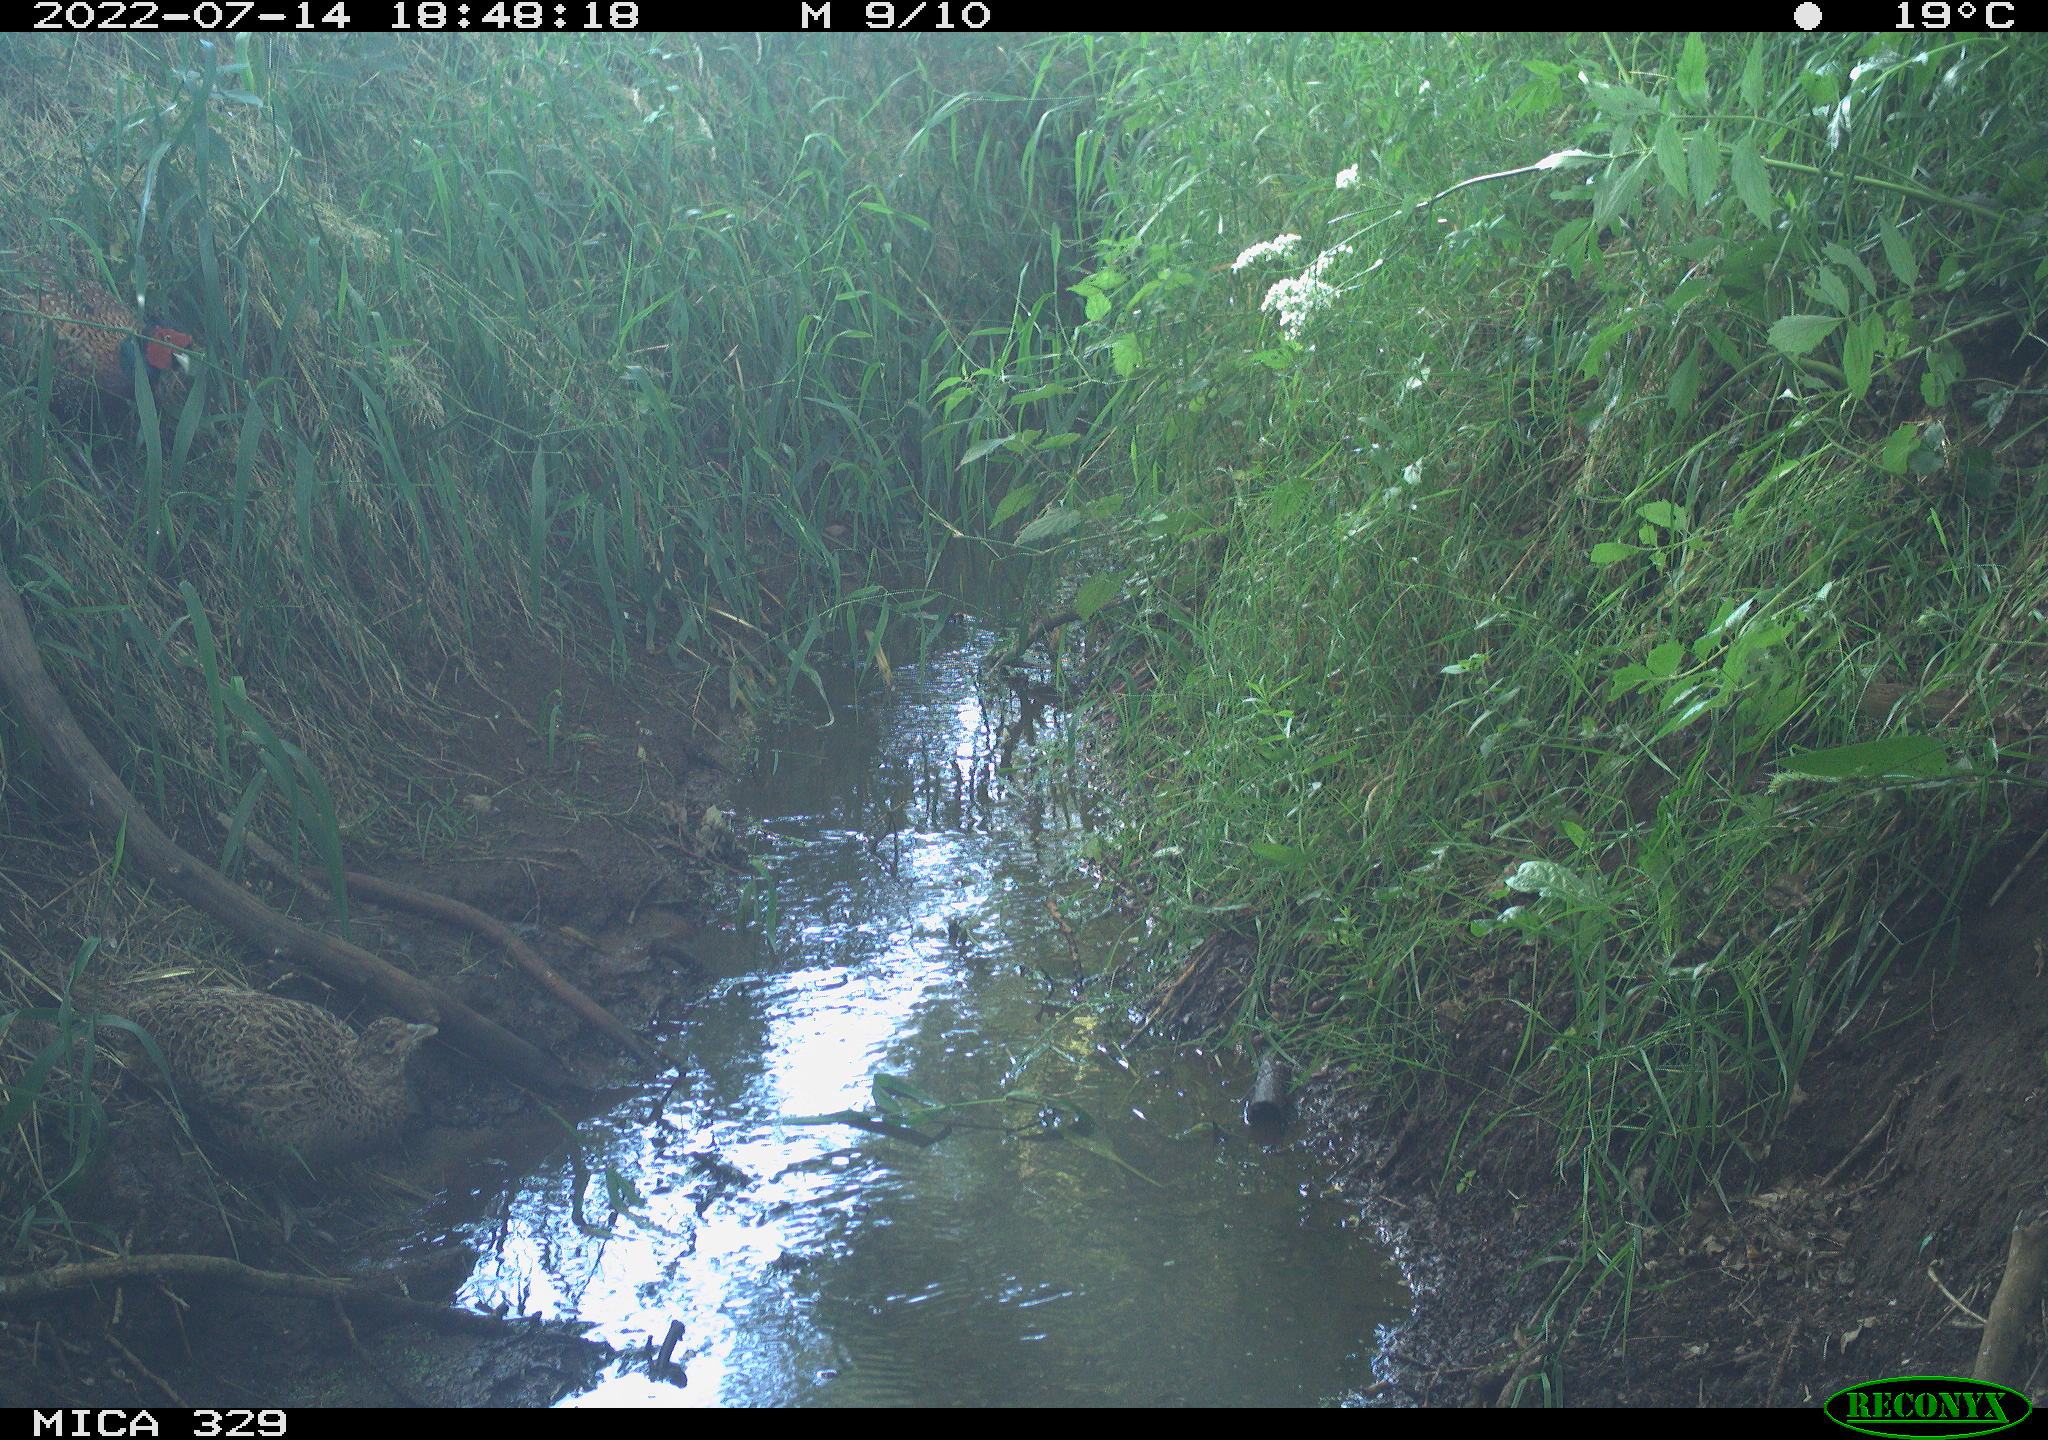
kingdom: Animalia
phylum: Chordata
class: Aves
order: Galliformes
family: Phasianidae
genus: Phasianus
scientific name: Phasianus colchicus
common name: Common pheasant
